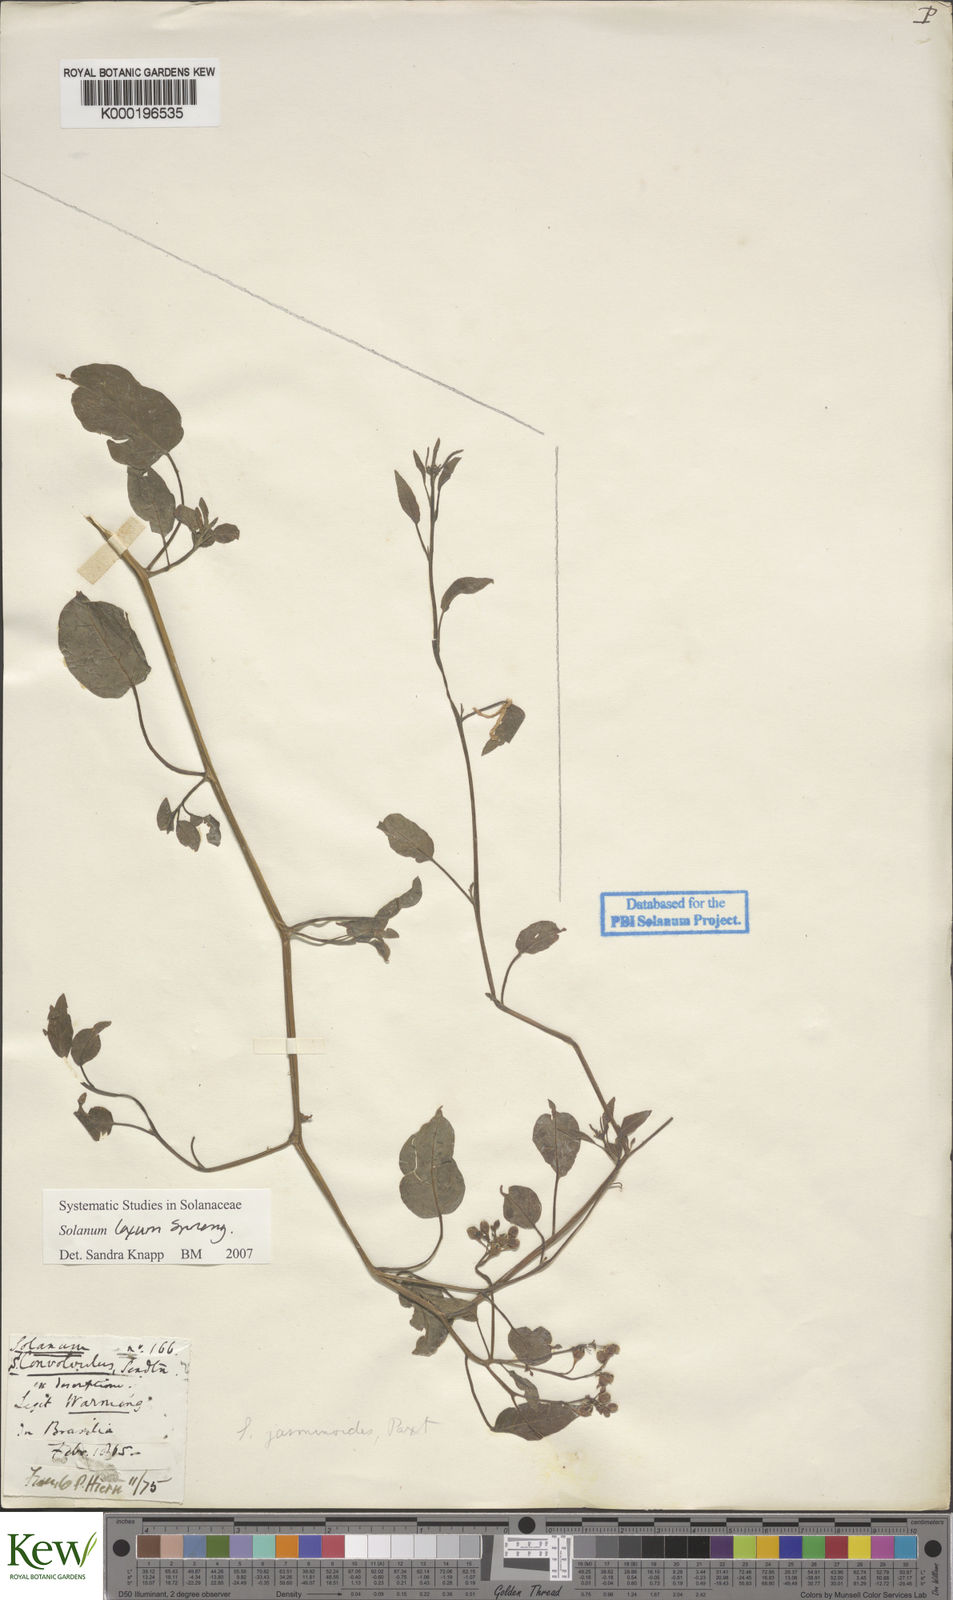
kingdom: Plantae
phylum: Tracheophyta
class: Magnoliopsida
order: Solanales
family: Solanaceae
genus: Solanum
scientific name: Solanum laxum
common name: Nightshade
